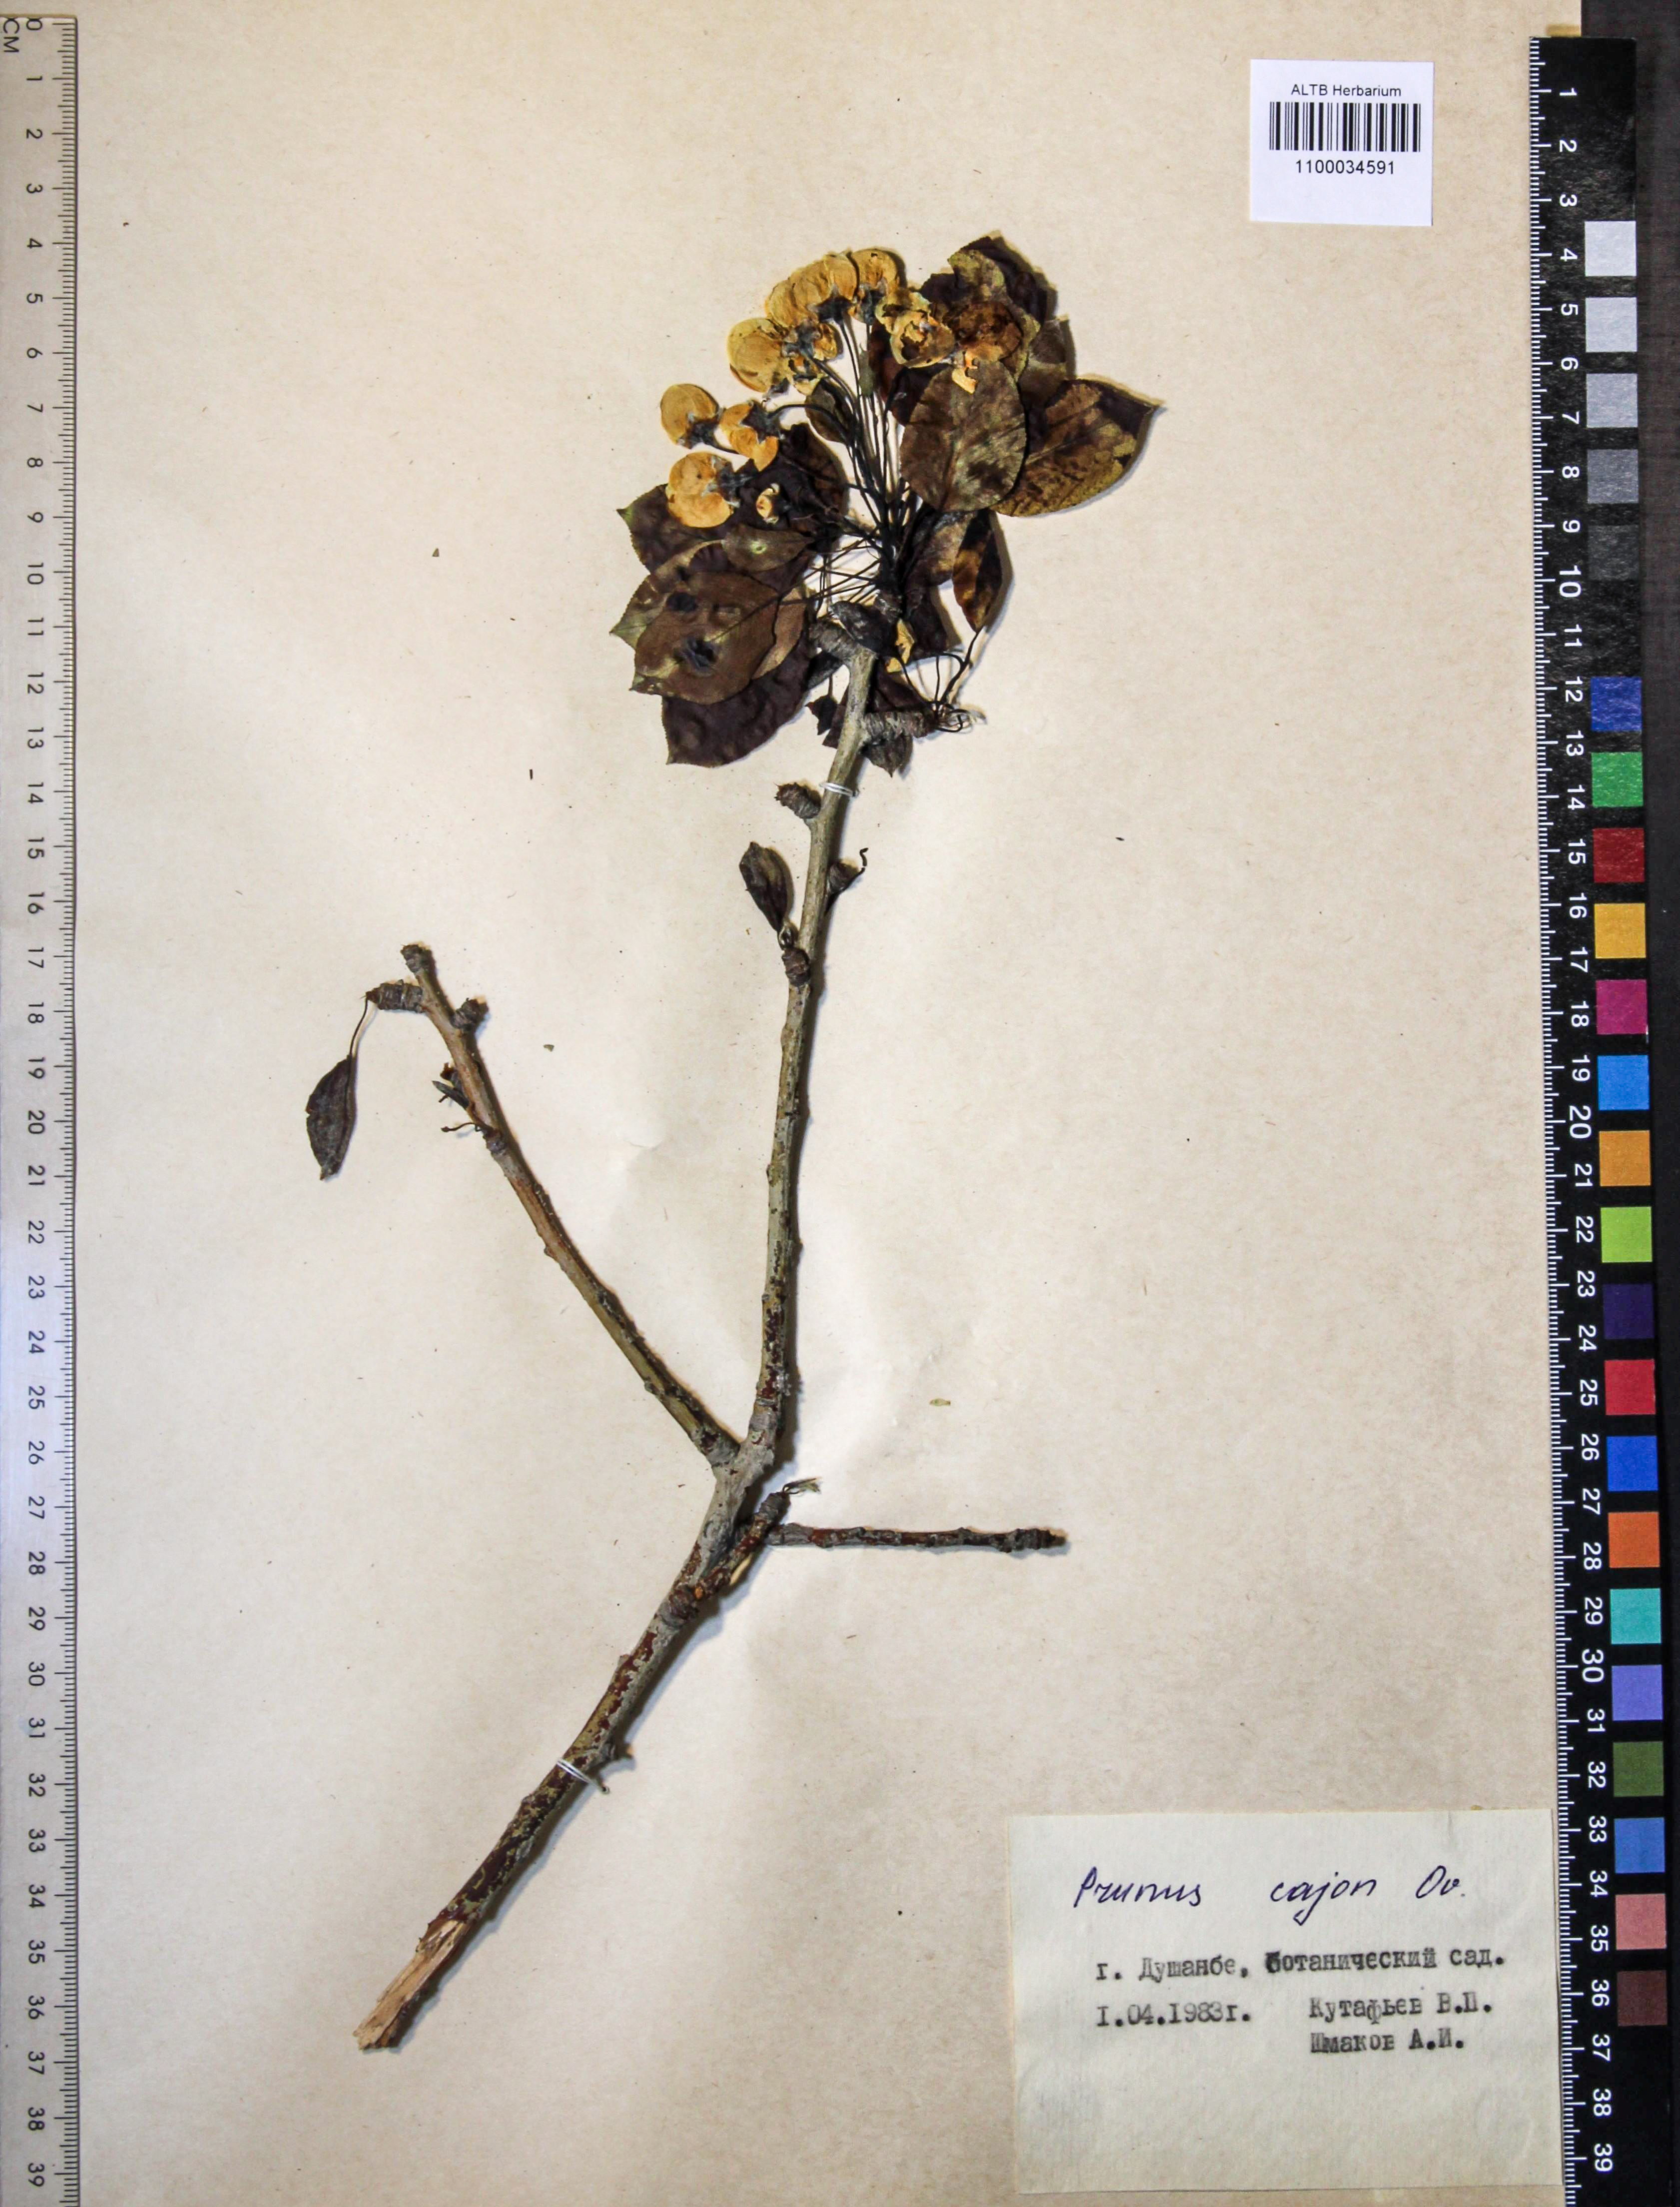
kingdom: Plantae
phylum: Tracheophyta
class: Magnoliopsida
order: Rosales
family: Rosaceae
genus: Prunus
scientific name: Prunus
